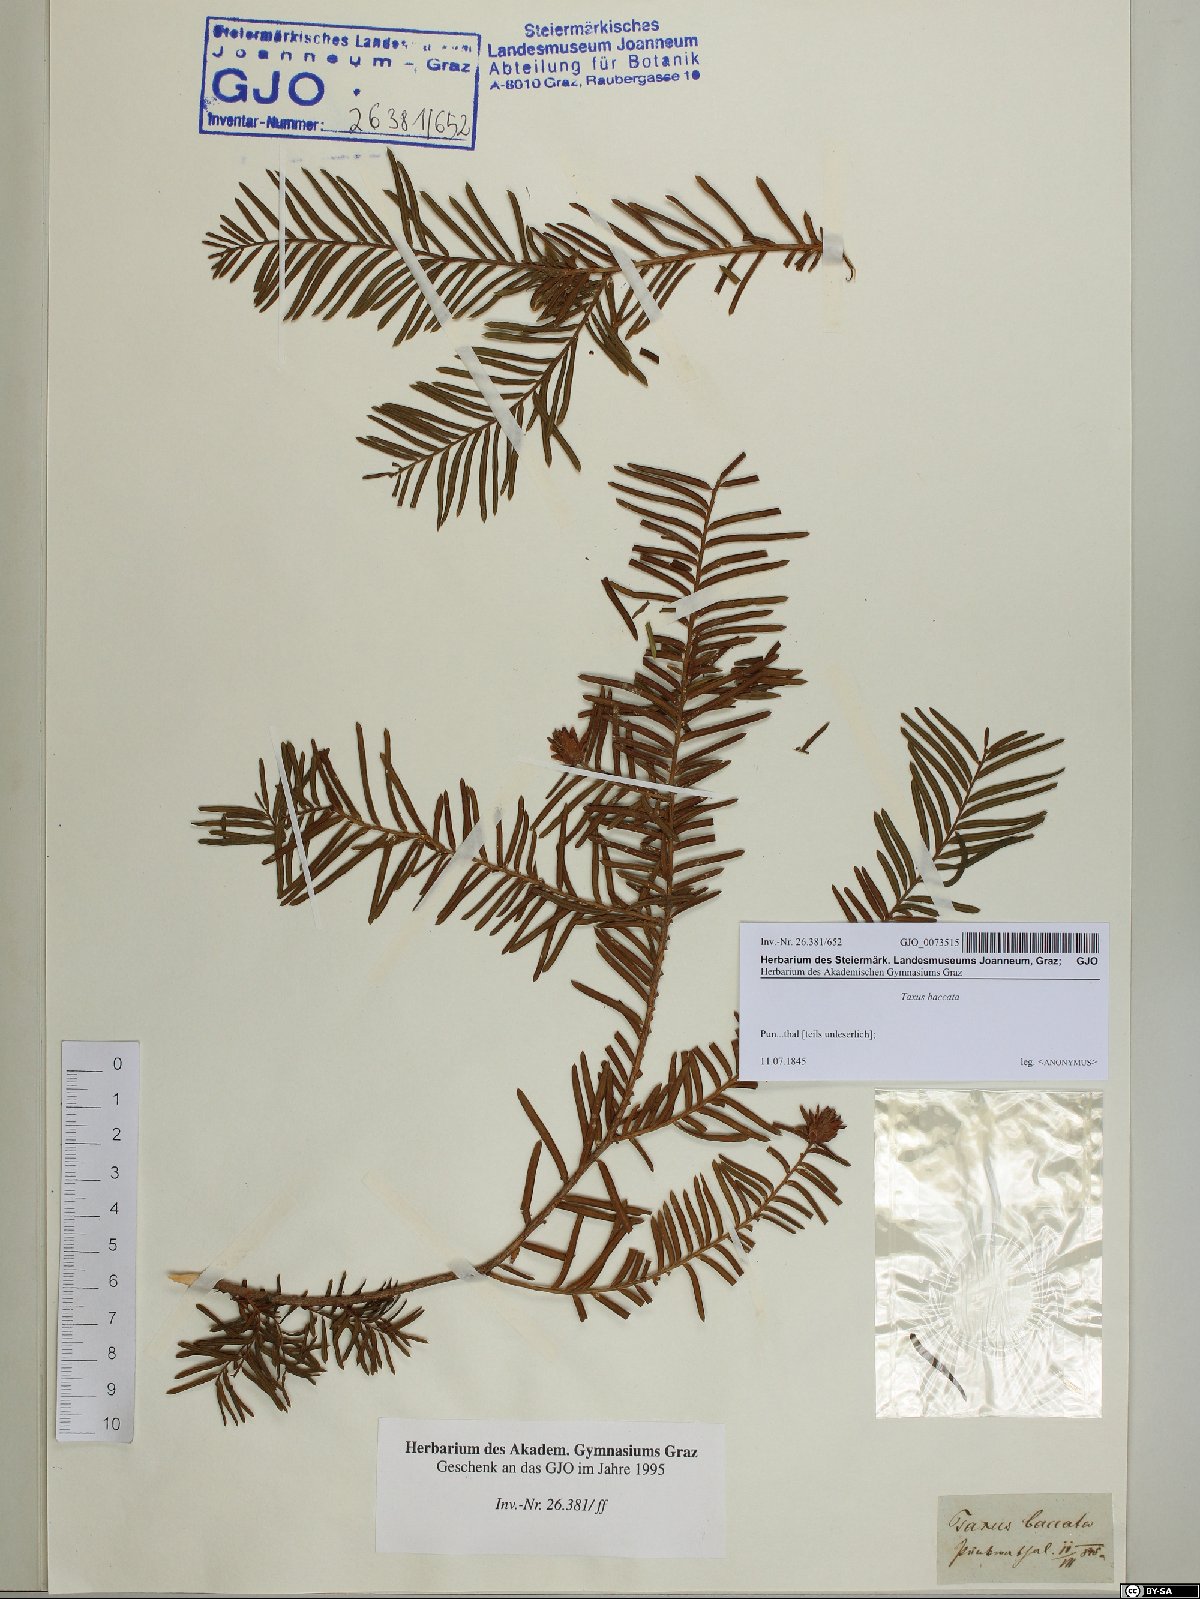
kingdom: Plantae
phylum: Tracheophyta
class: Pinopsida
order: Pinales
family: Taxaceae
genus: Taxus
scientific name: Taxus baccata
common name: Yew
